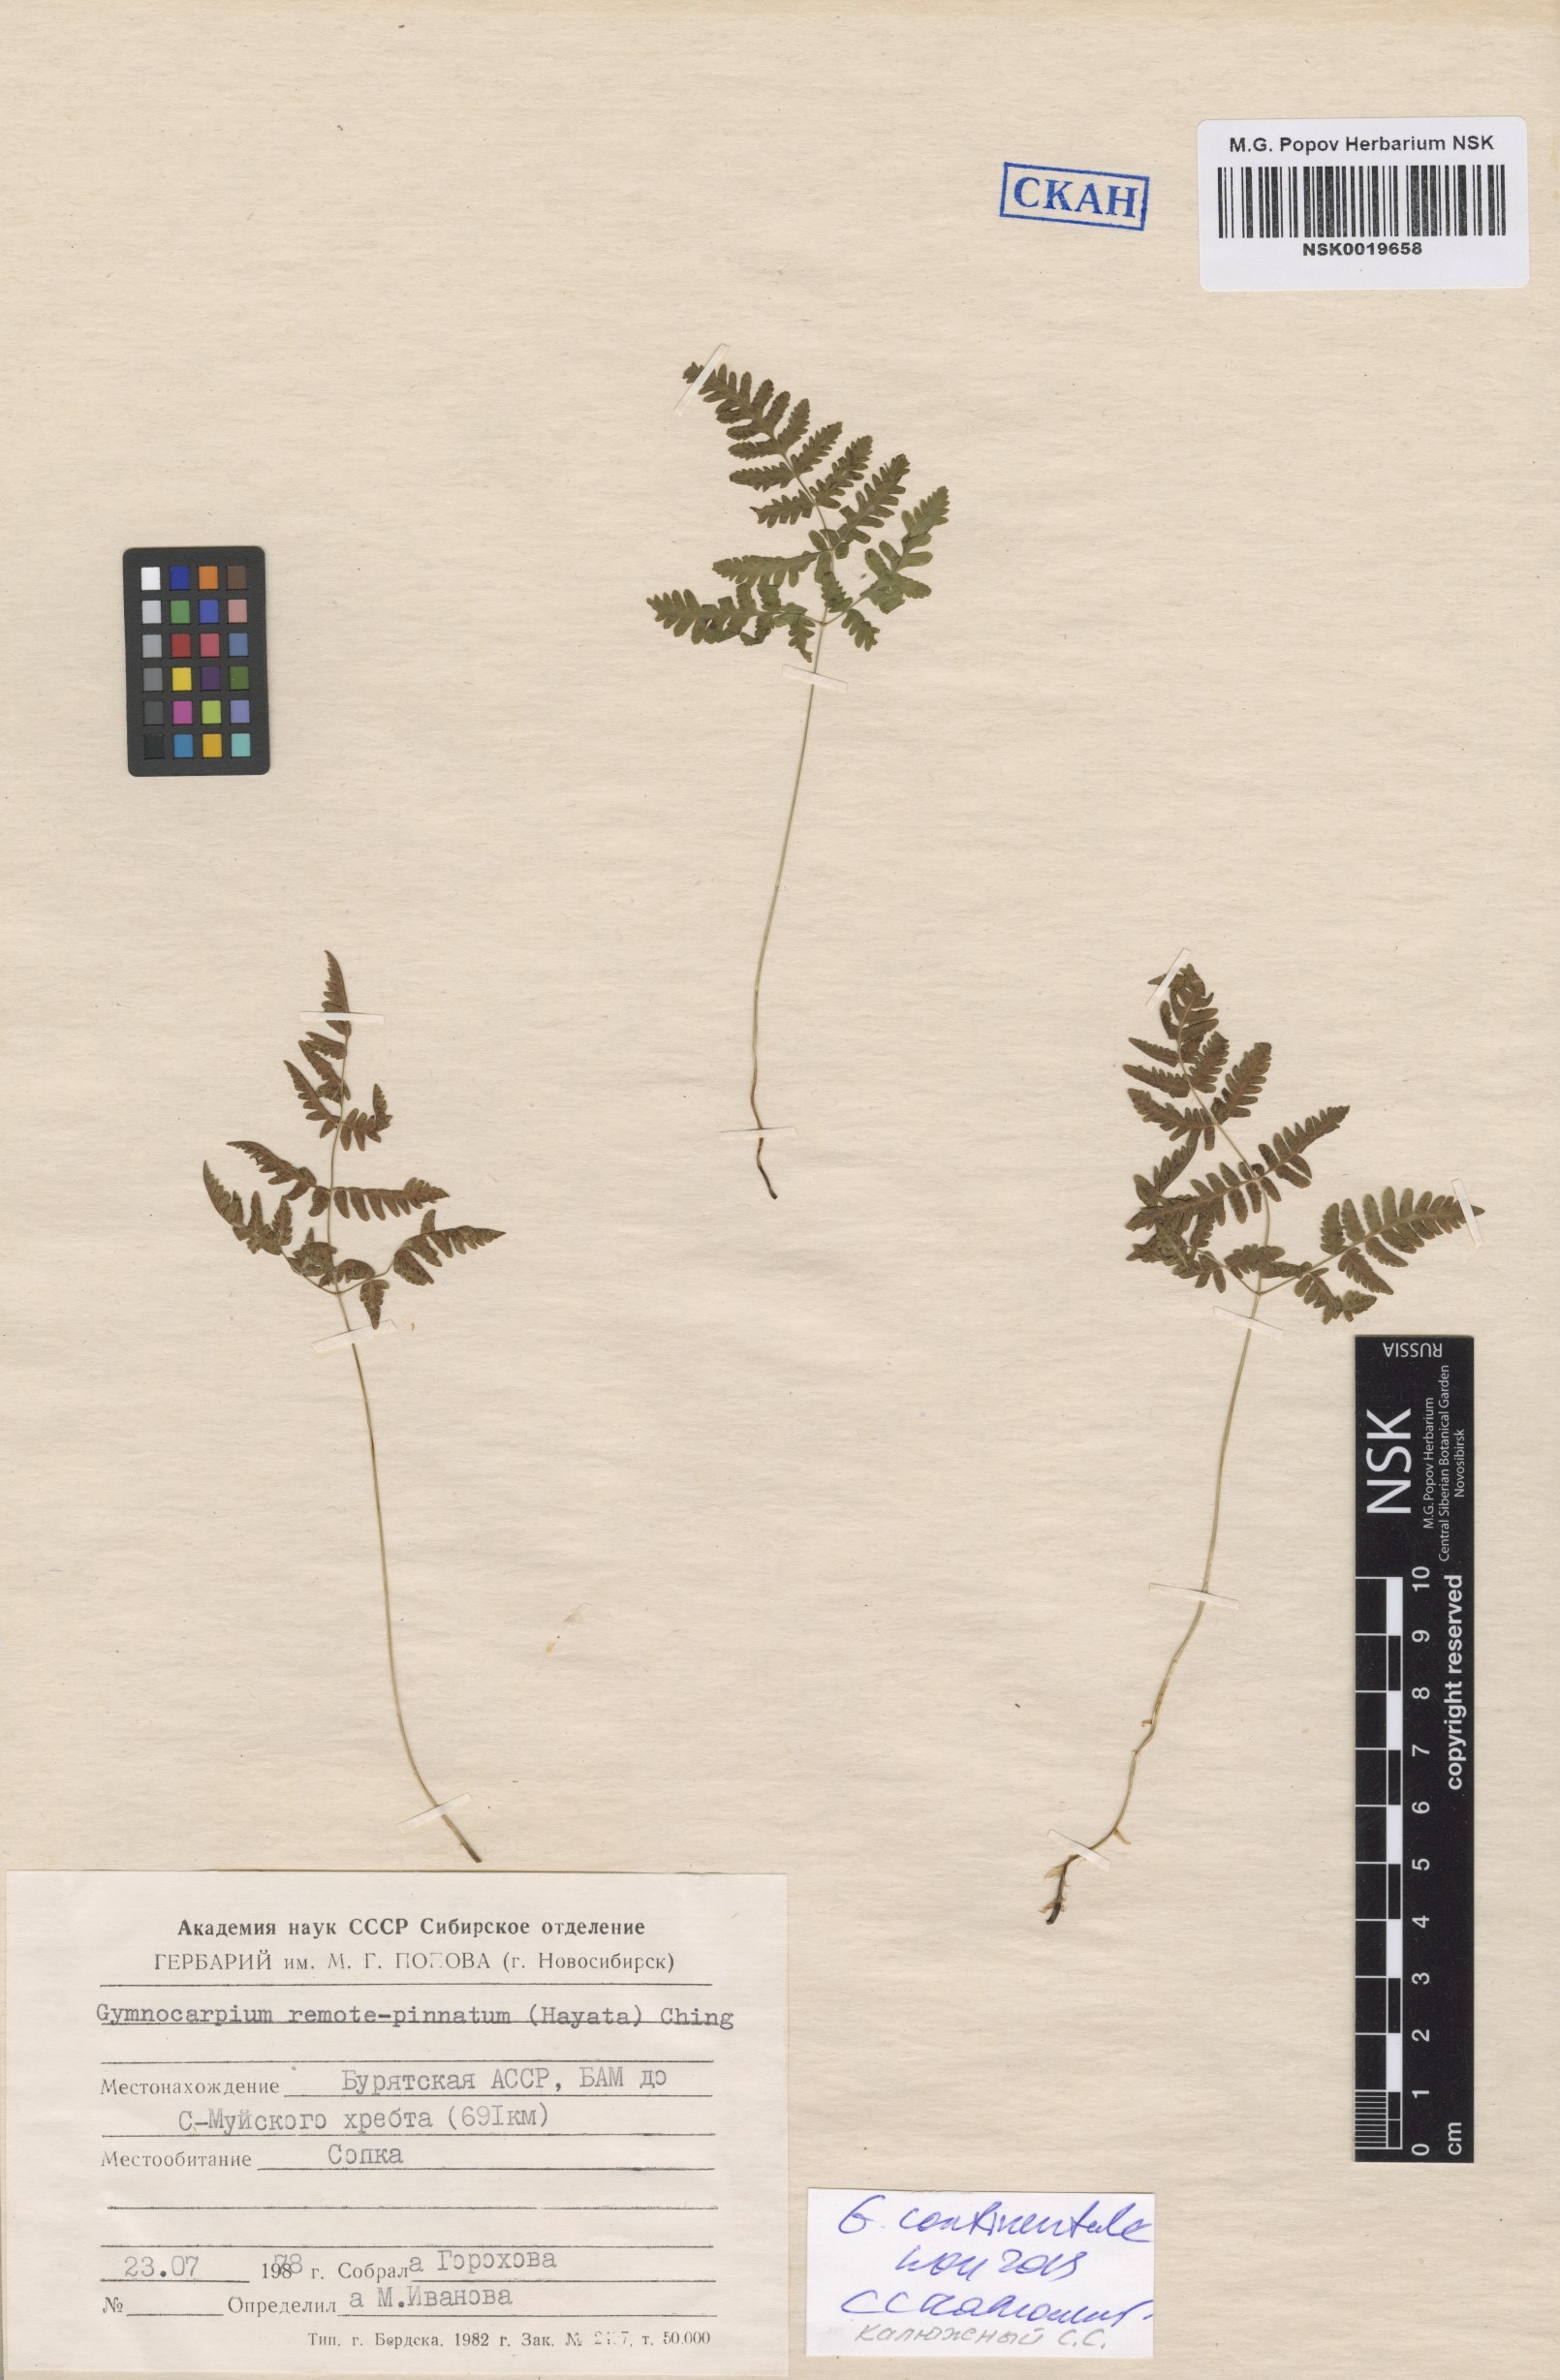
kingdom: Plantae
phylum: Tracheophyta
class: Polypodiopsida
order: Polypodiales
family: Cystopteridaceae
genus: Gymnocarpium
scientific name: Gymnocarpium continentale
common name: Asian oak fern
